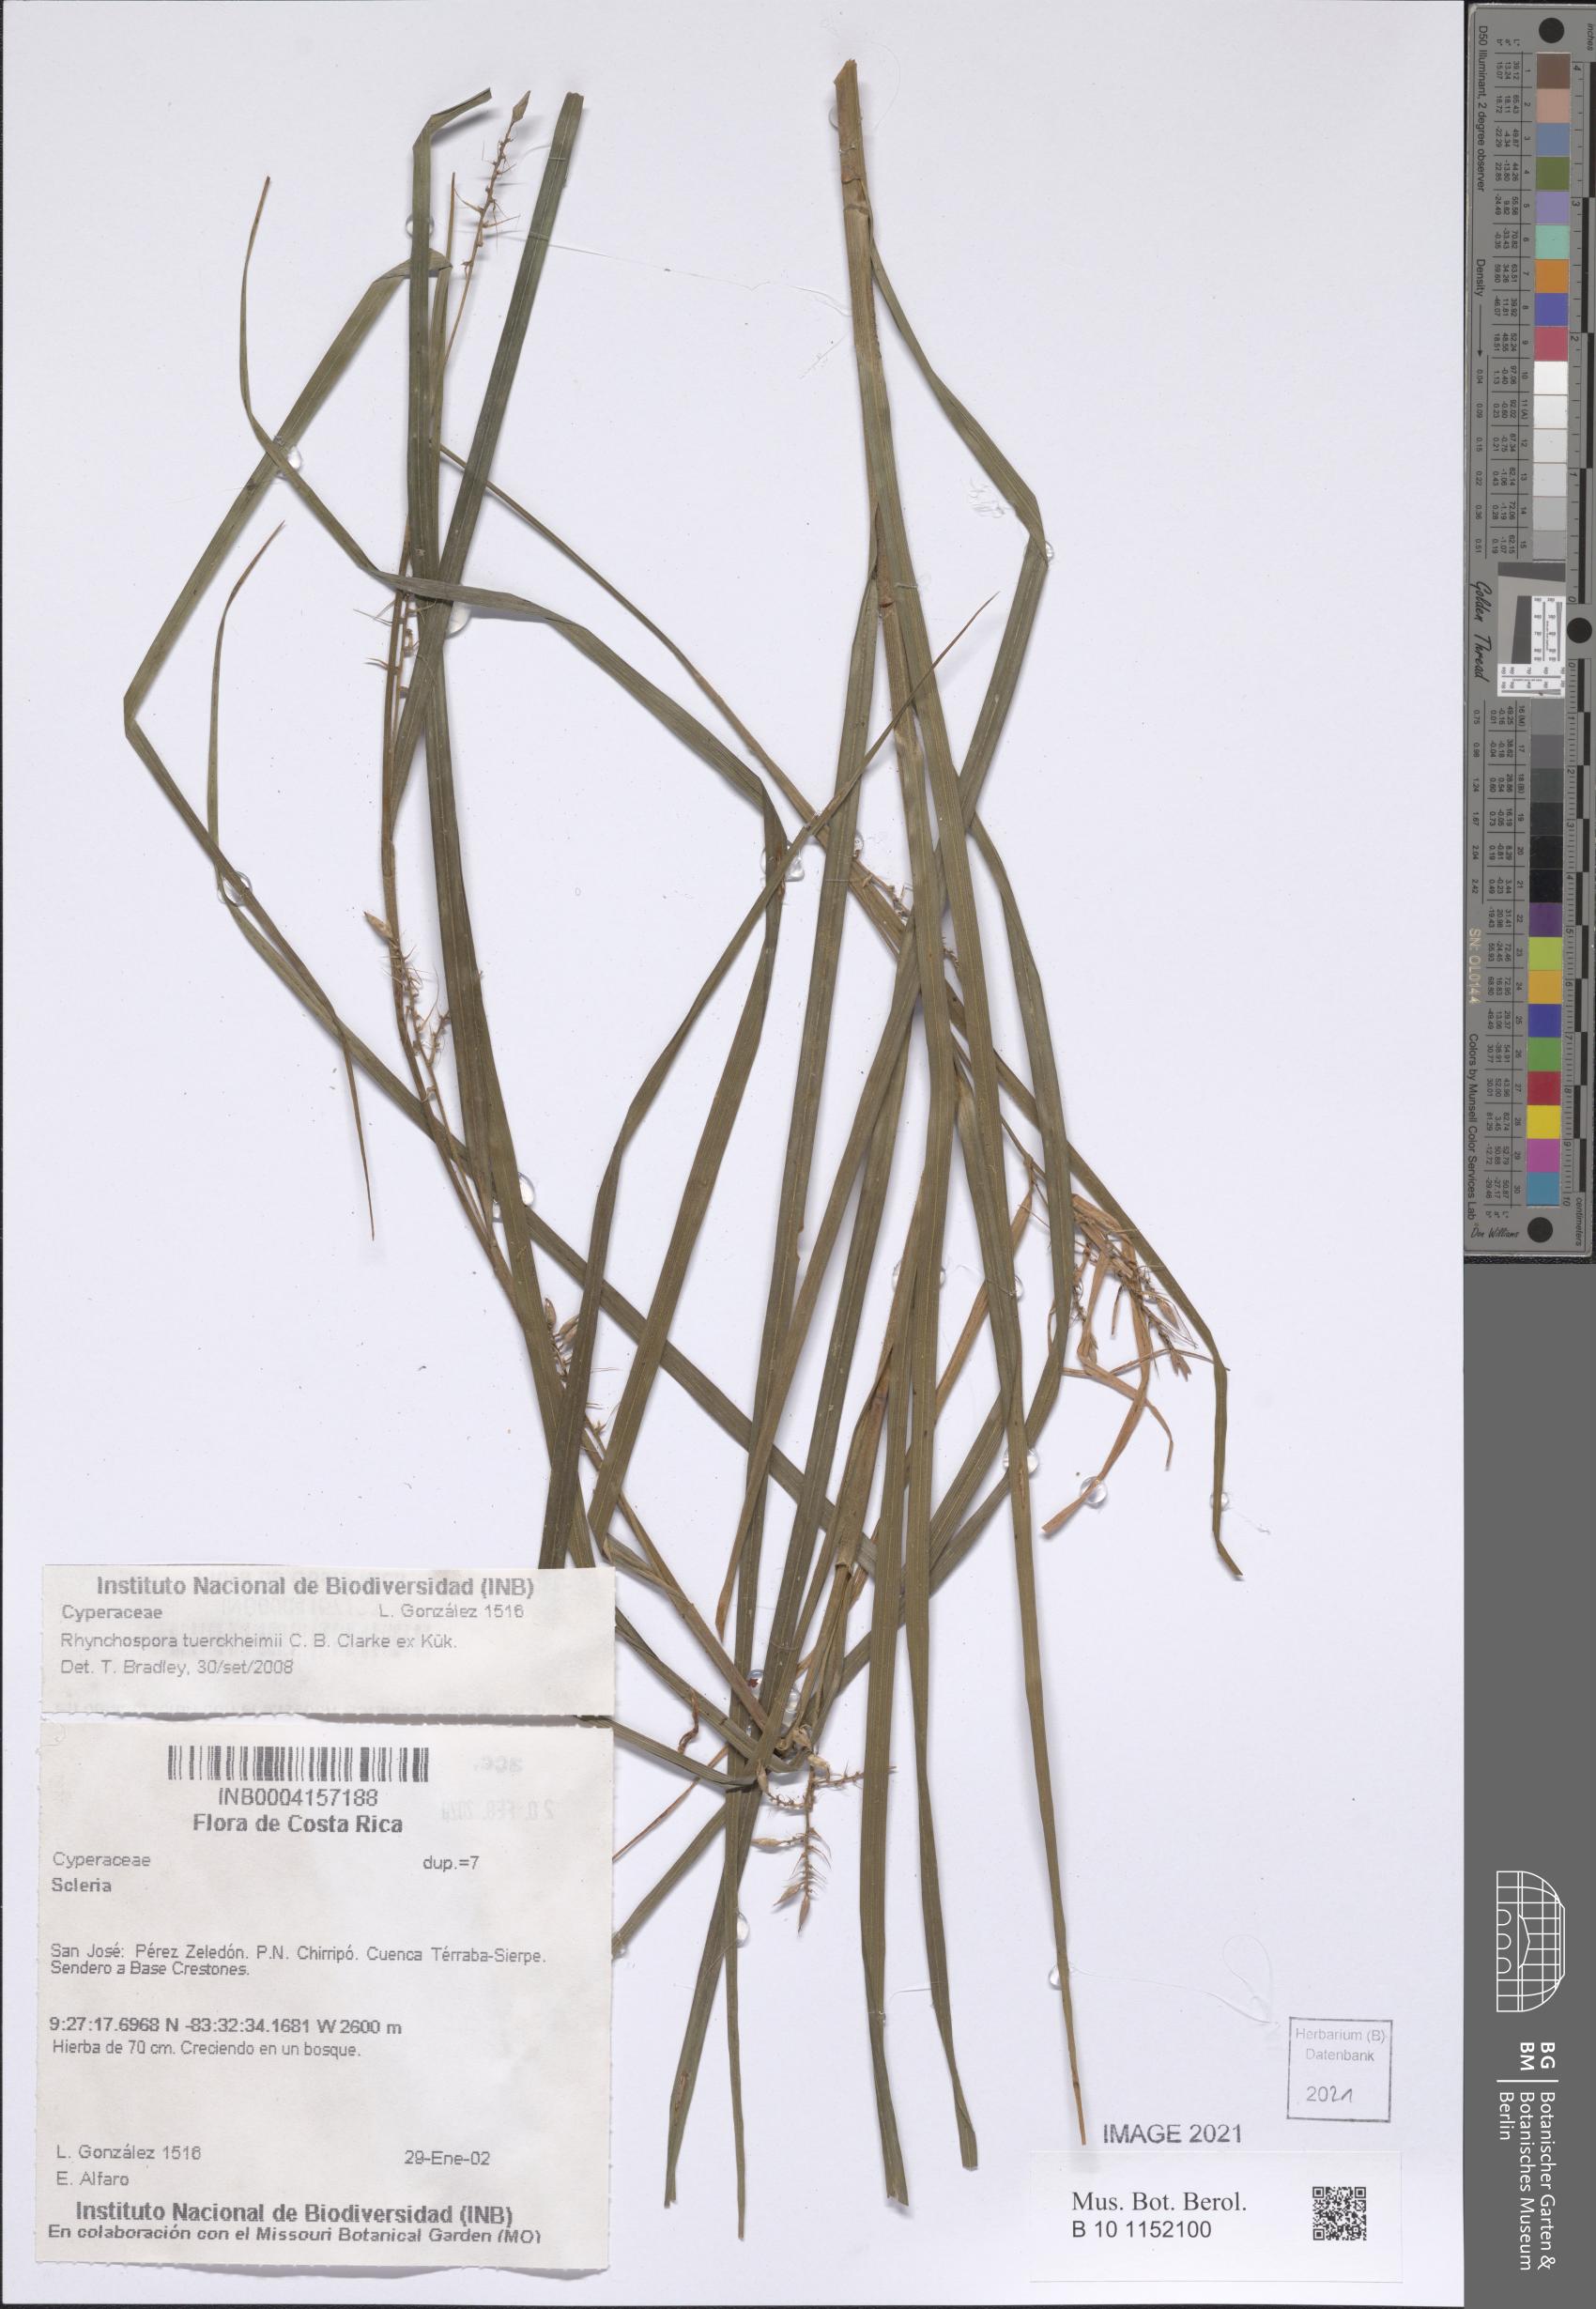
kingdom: Plantae
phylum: Tracheophyta
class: Liliopsida
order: Poales
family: Cyperaceae
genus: Rhynchospora
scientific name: Rhynchospora tuerckheimii
